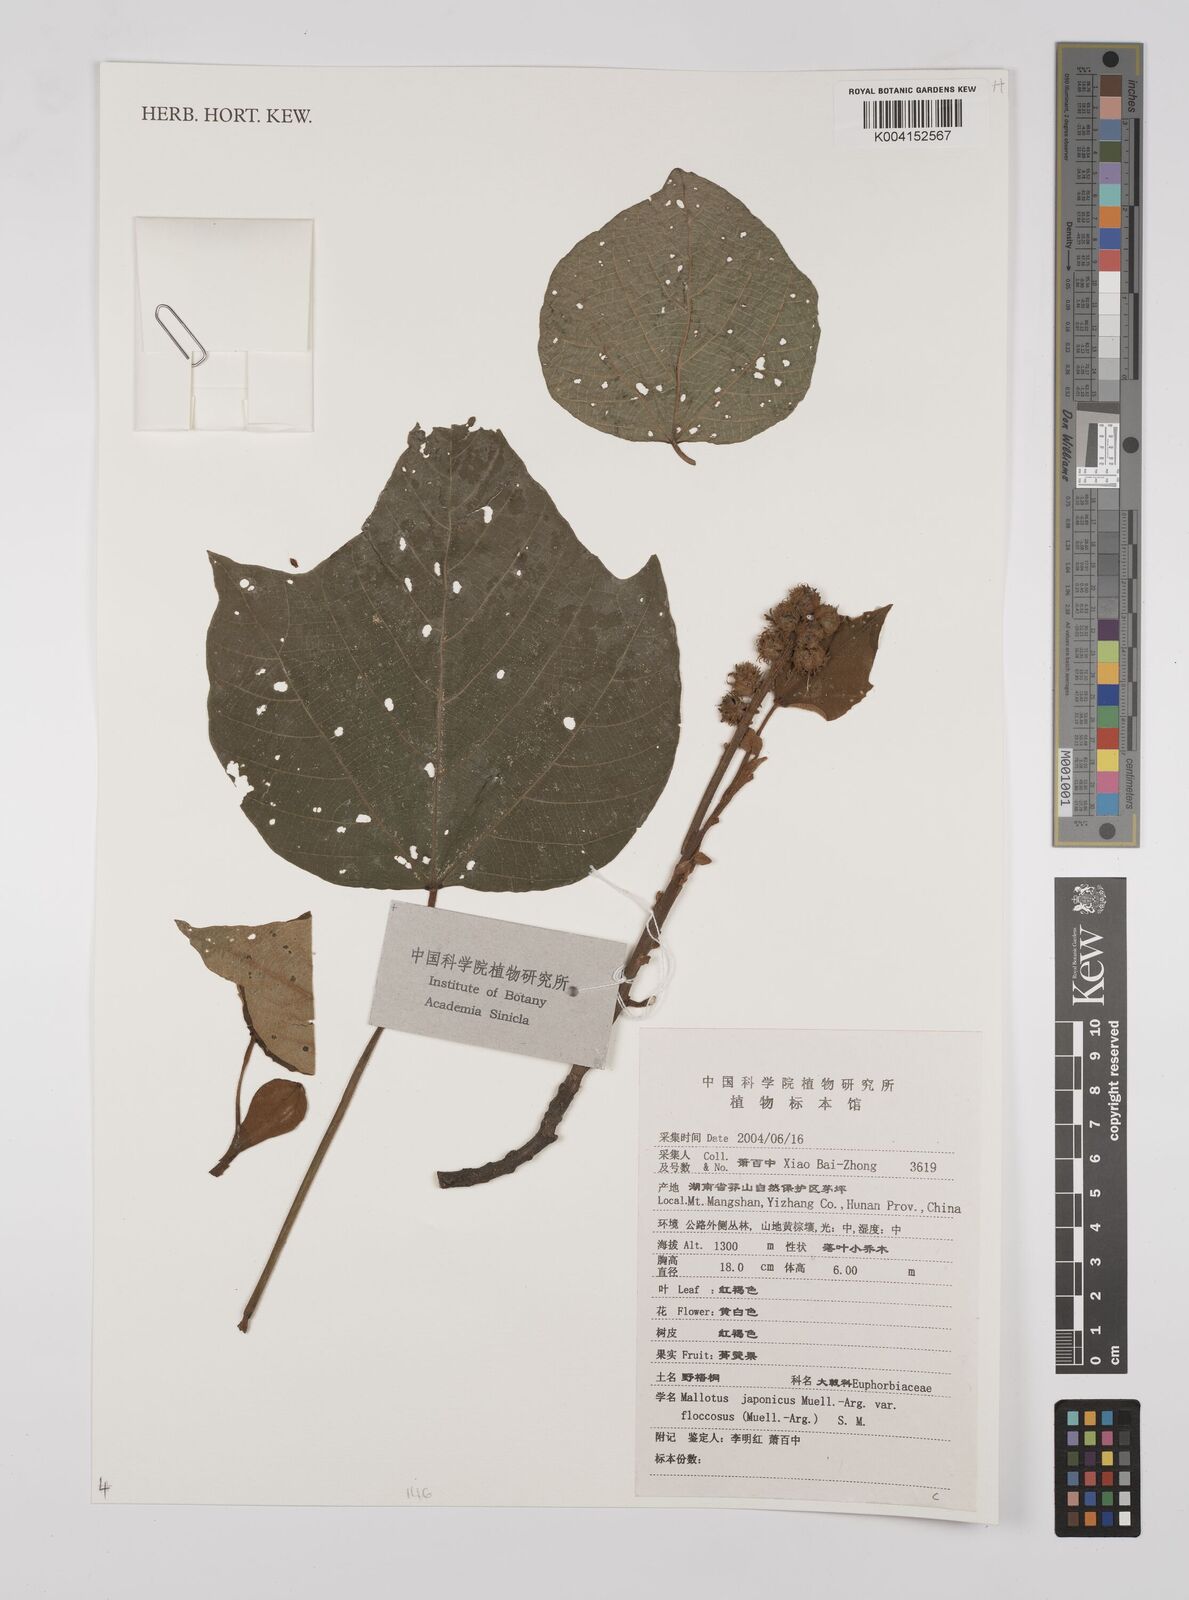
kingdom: Plantae
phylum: Tracheophyta
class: Magnoliopsida
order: Malpighiales
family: Euphorbiaceae
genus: Mallotus
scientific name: Mallotus japonicus
